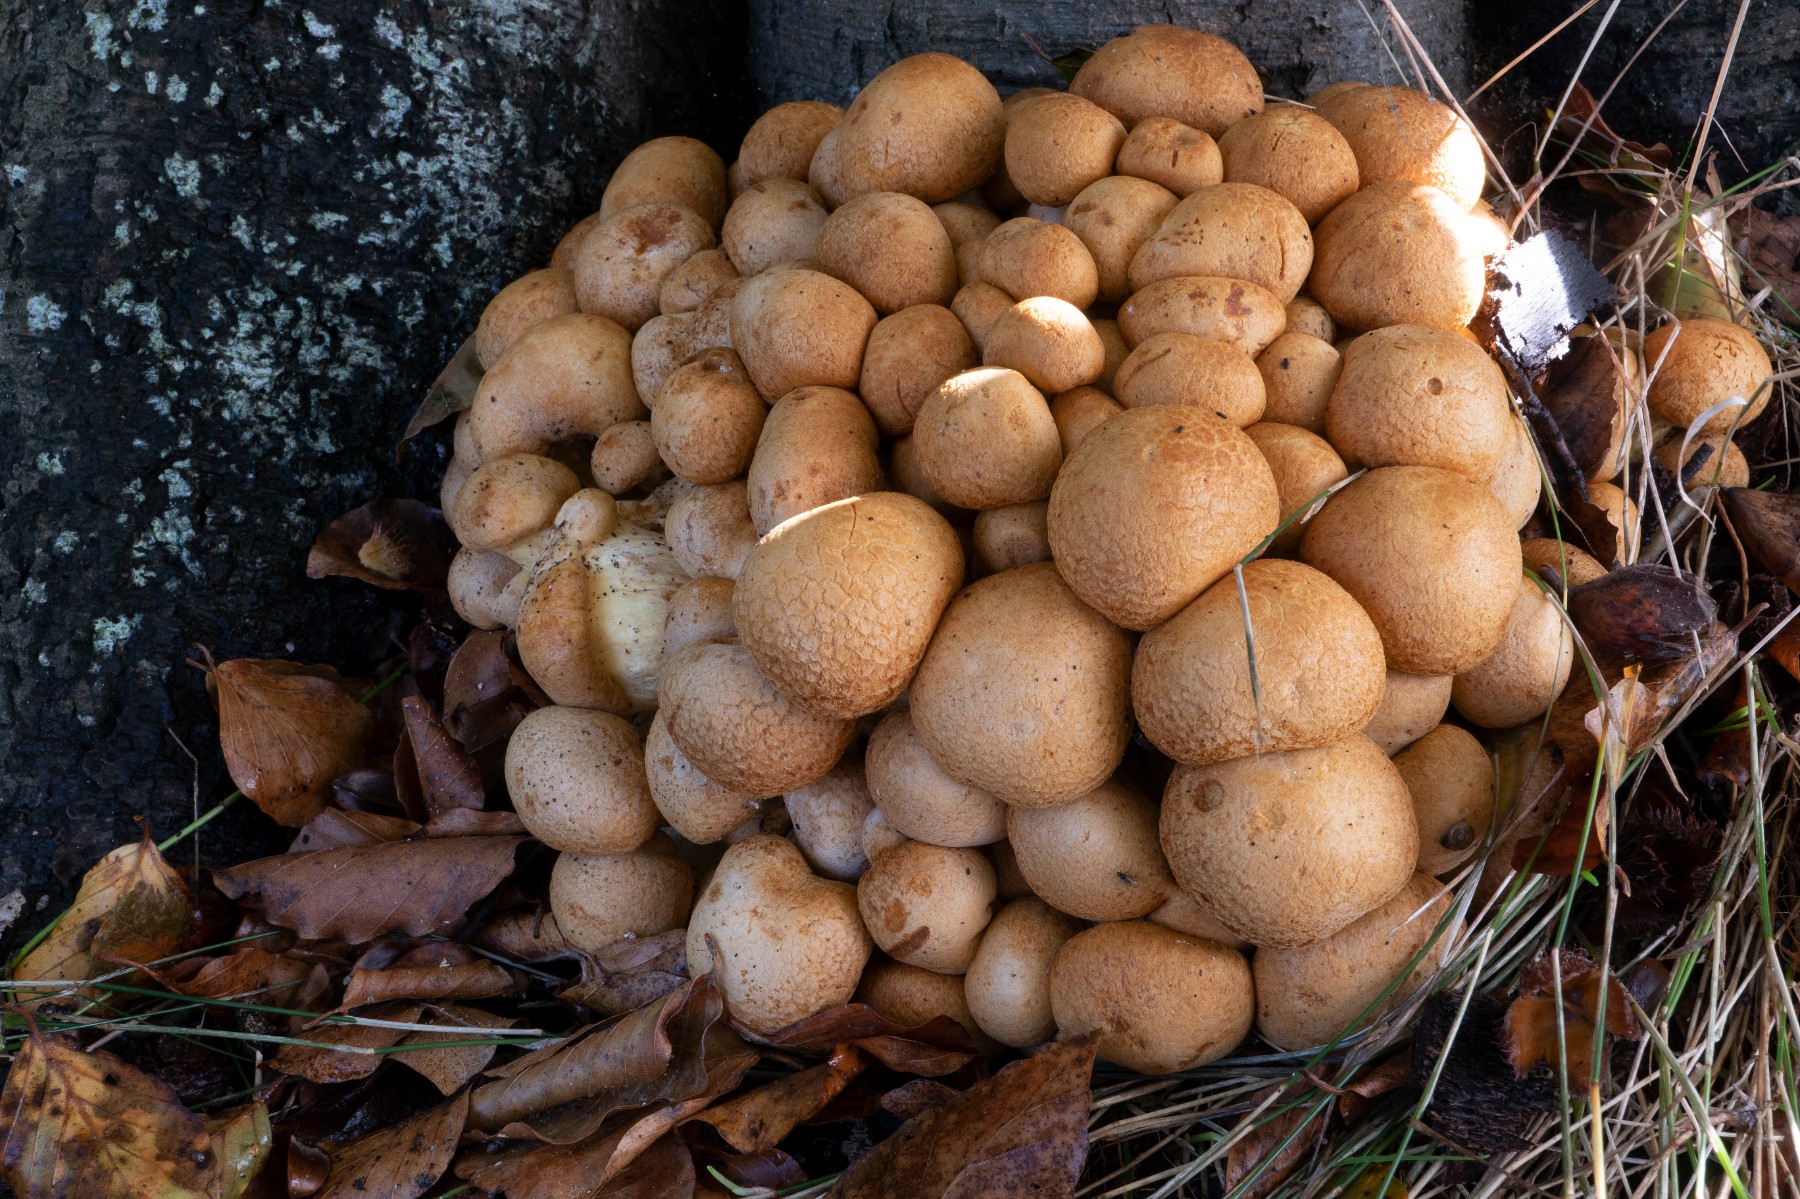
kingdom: Fungi
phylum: Basidiomycota
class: Agaricomycetes
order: Agaricales
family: Hymenogastraceae
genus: Gymnopilus
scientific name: Gymnopilus spectabilis
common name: fibret flammehat
